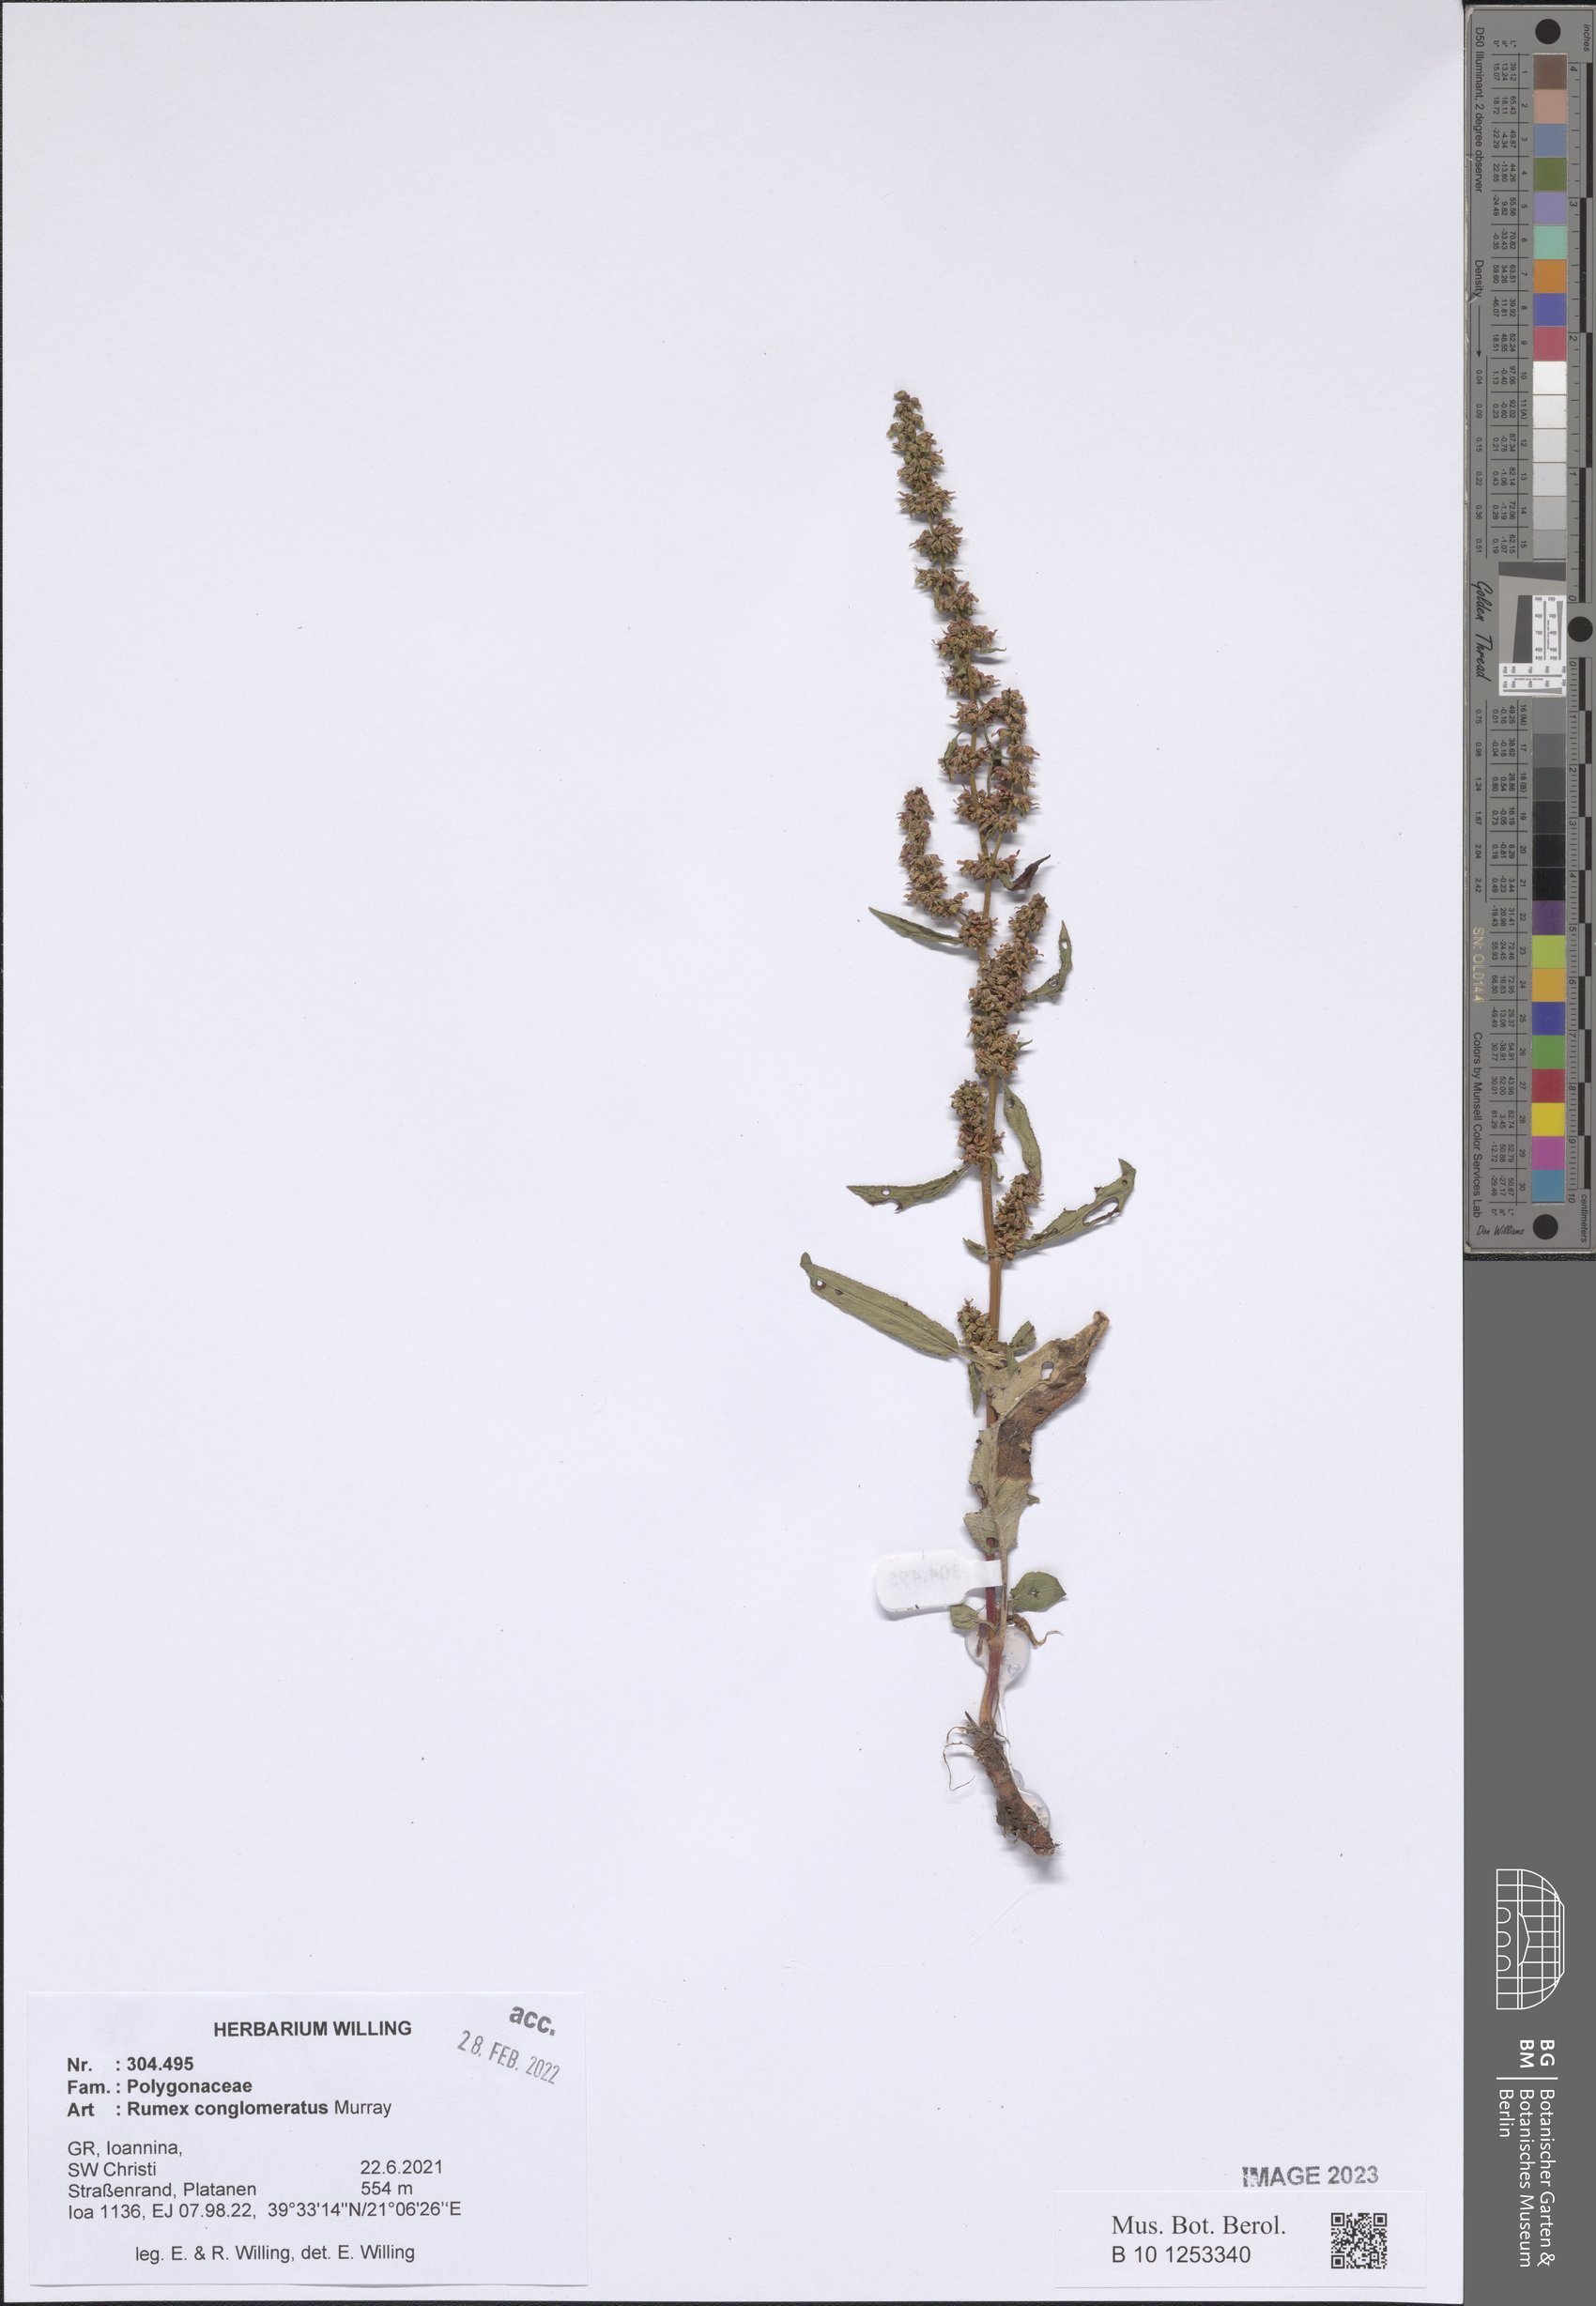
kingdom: Plantae
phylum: Tracheophyta
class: Magnoliopsida
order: Caryophyllales
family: Polygonaceae
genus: Rumex
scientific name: Rumex conglomeratus
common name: Clustered dock
